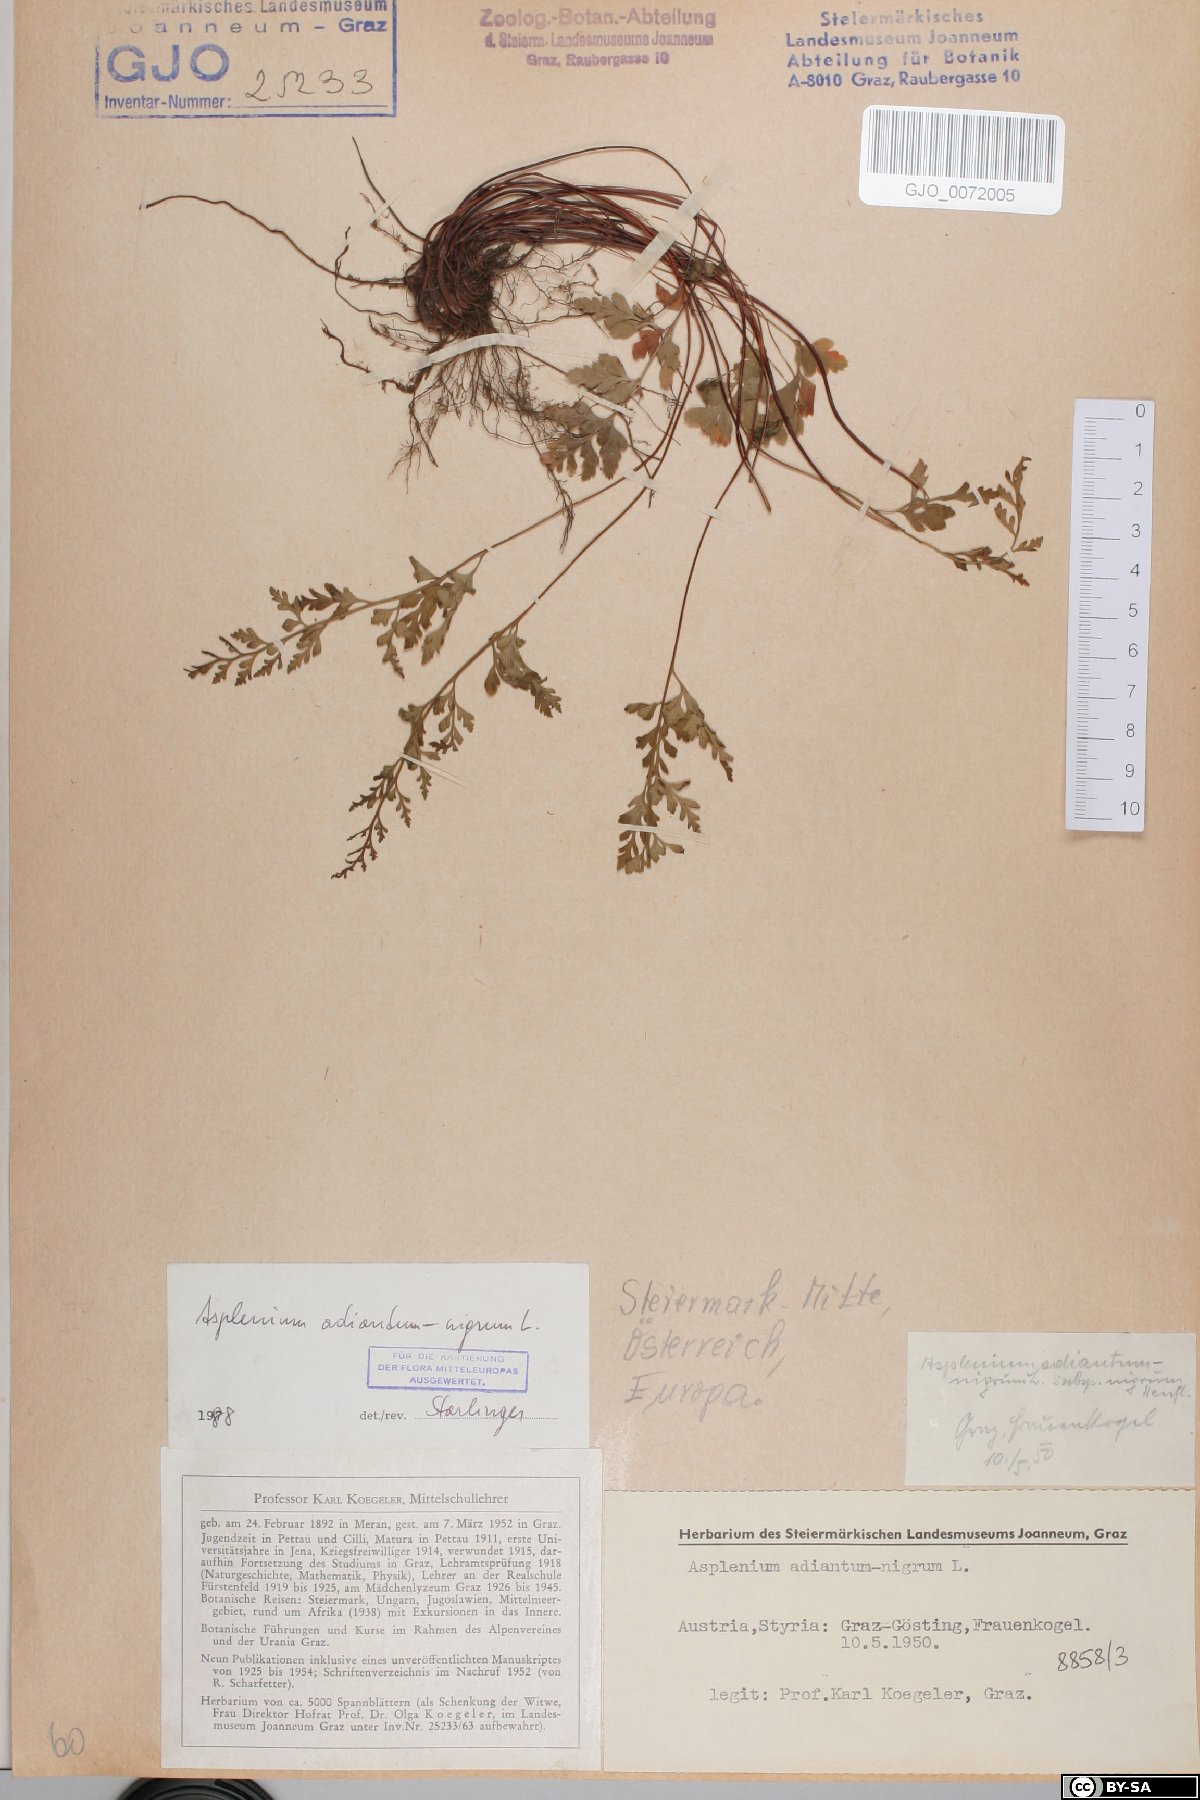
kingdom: Plantae
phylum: Tracheophyta
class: Polypodiopsida
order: Polypodiales
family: Aspleniaceae
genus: Asplenium
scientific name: Asplenium adiantum-nigrum
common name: Black spleenwort
